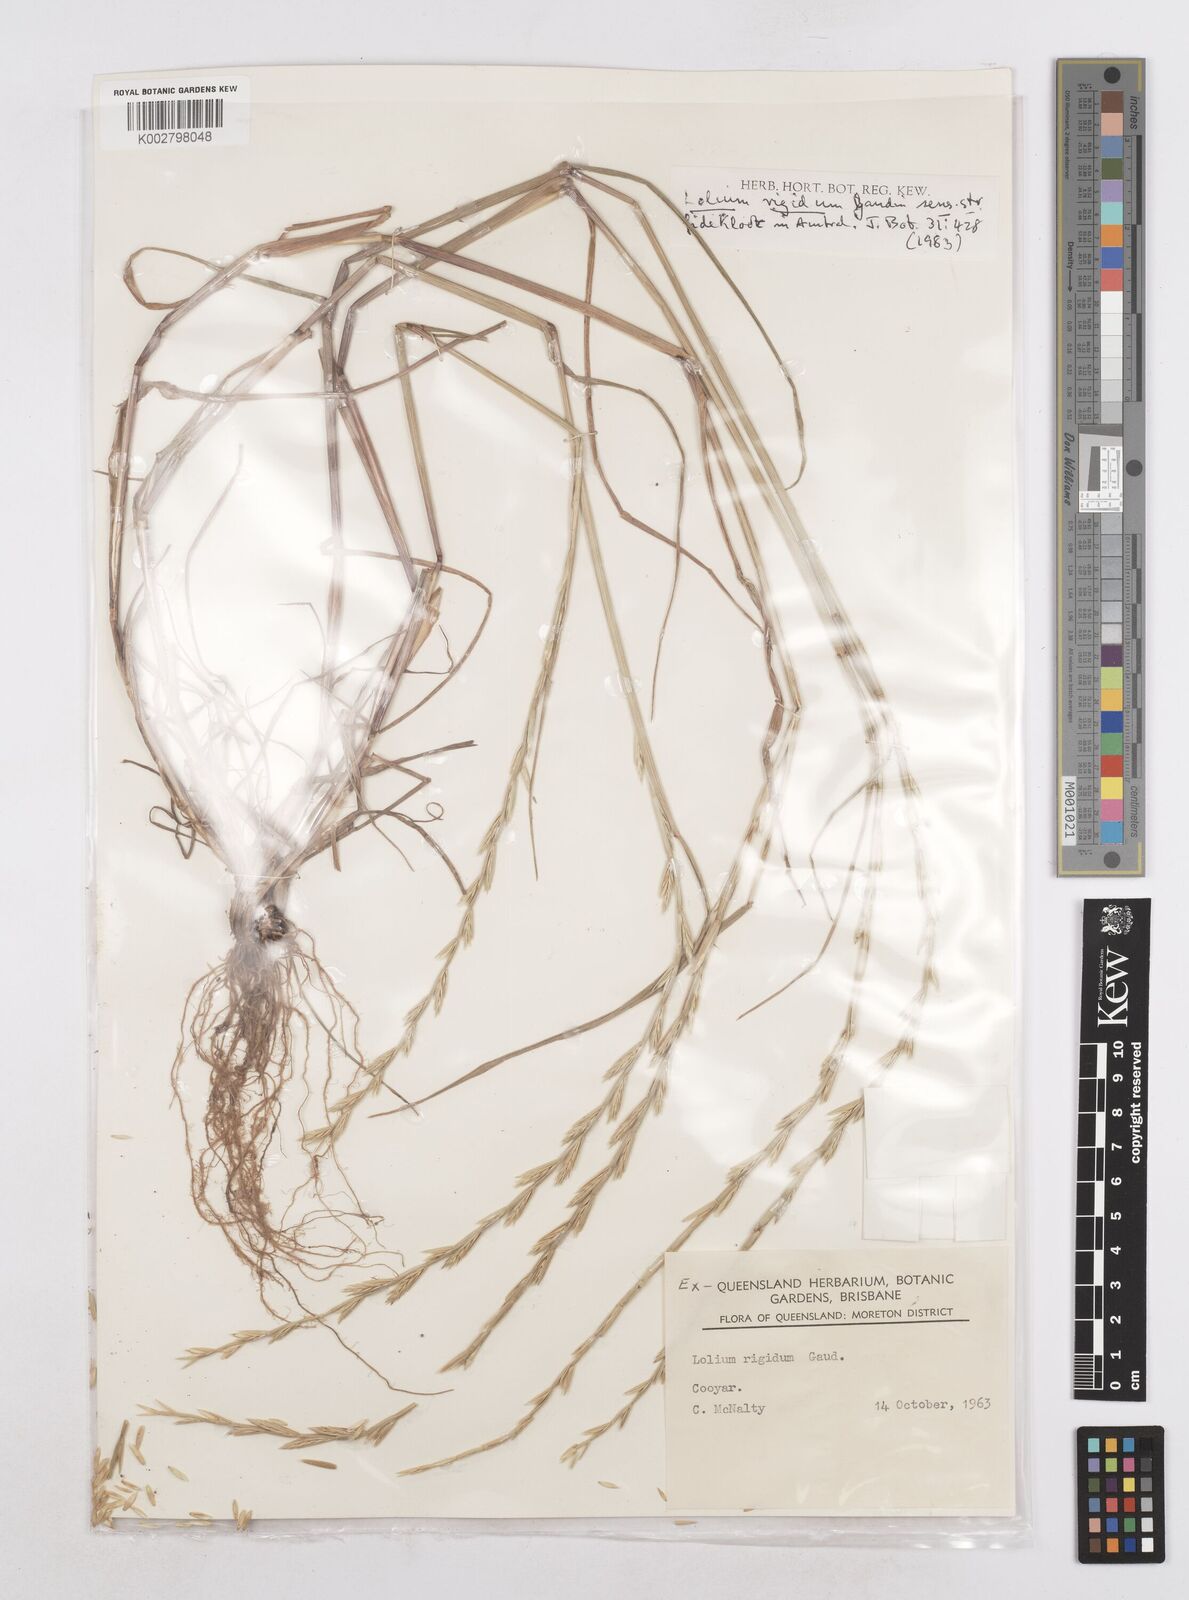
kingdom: Plantae
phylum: Tracheophyta
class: Liliopsida
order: Poales
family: Poaceae
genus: Lolium
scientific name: Lolium
